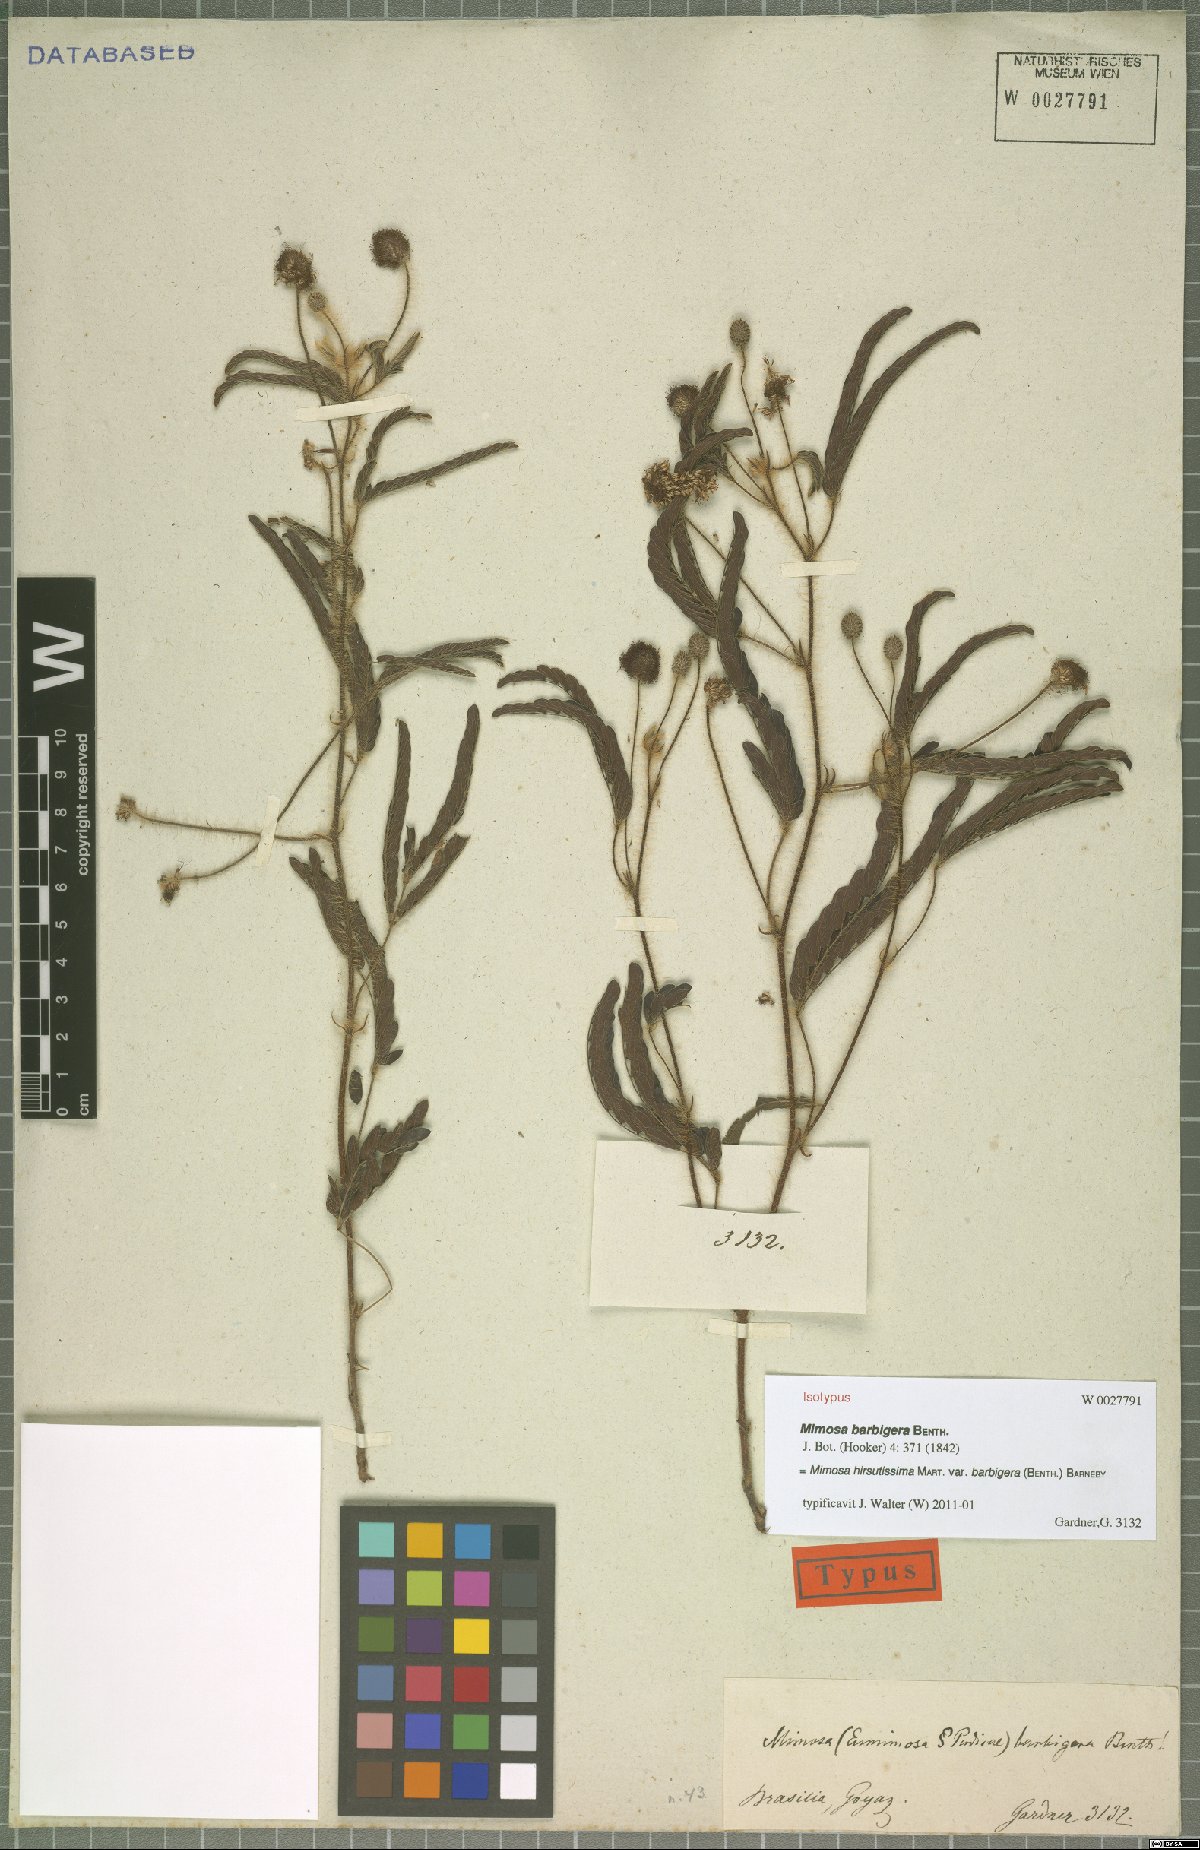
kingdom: Plantae
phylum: Tracheophyta
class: Magnoliopsida
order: Fabales
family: Fabaceae
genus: Mimosa
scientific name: Mimosa hirsutissima
